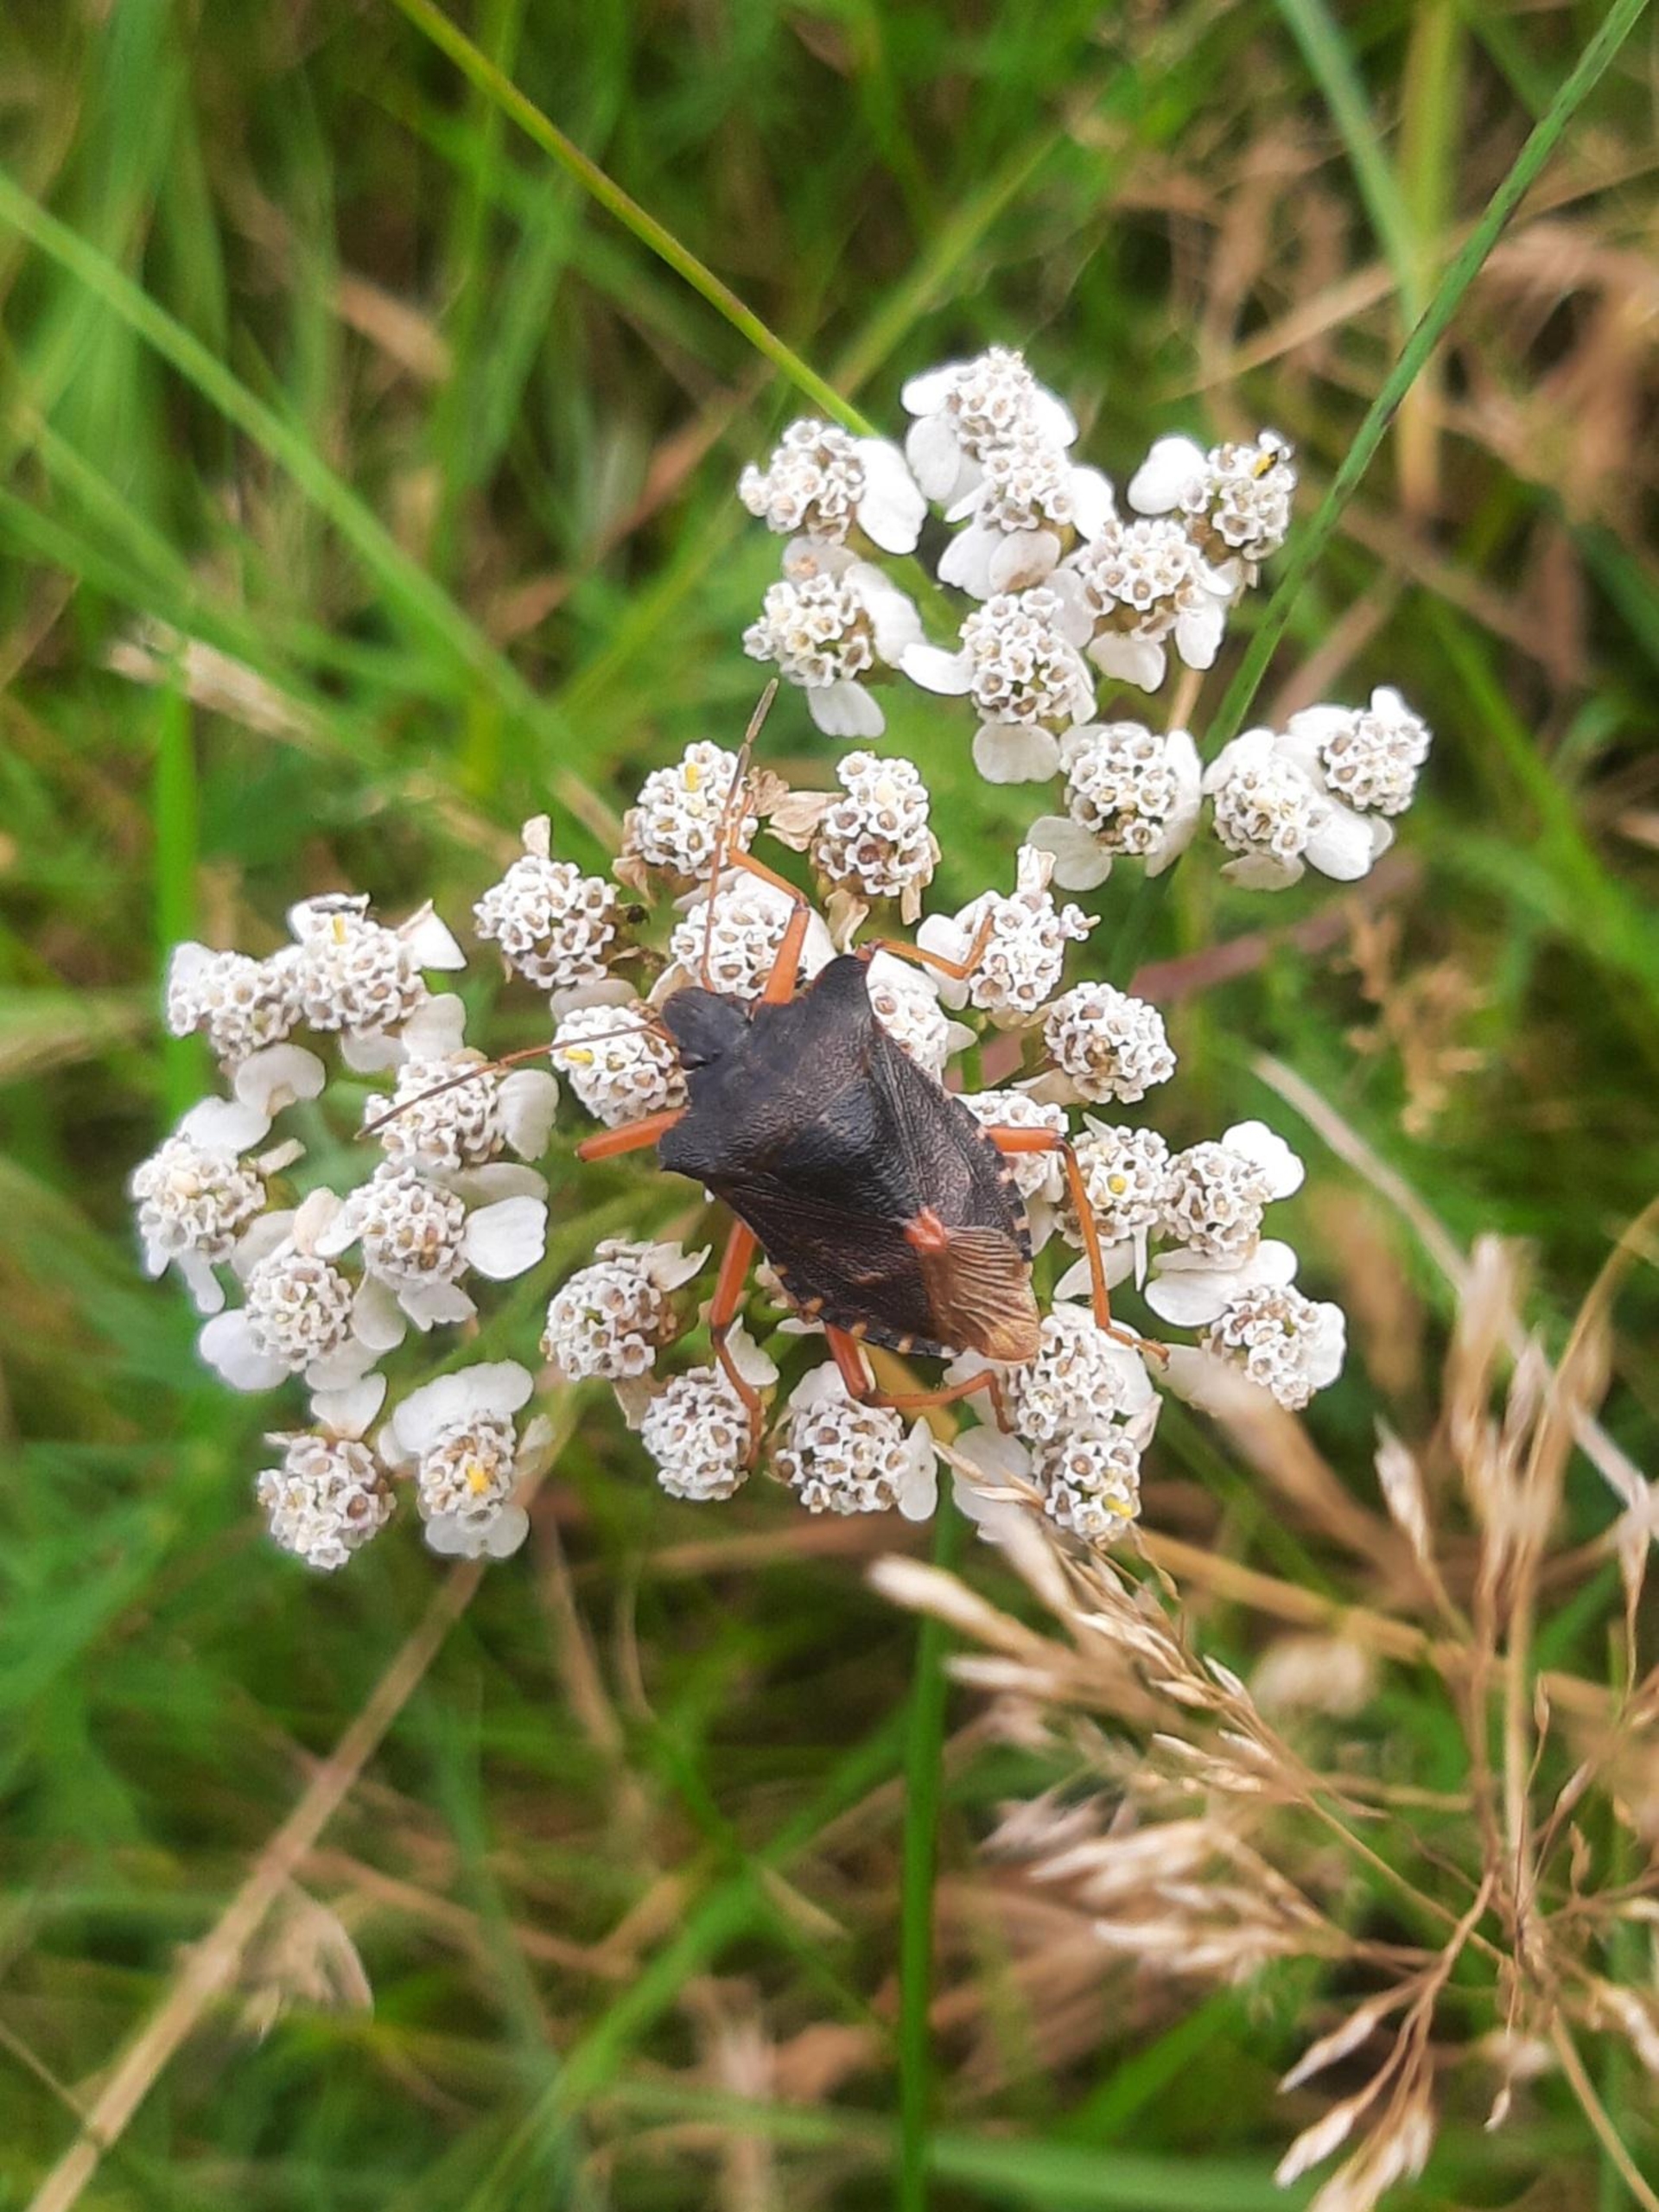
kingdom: Animalia
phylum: Arthropoda
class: Insecta
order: Hemiptera
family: Pentatomidae
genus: Pentatoma
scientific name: Pentatoma rufipes
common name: Rødbenet bredtæge
